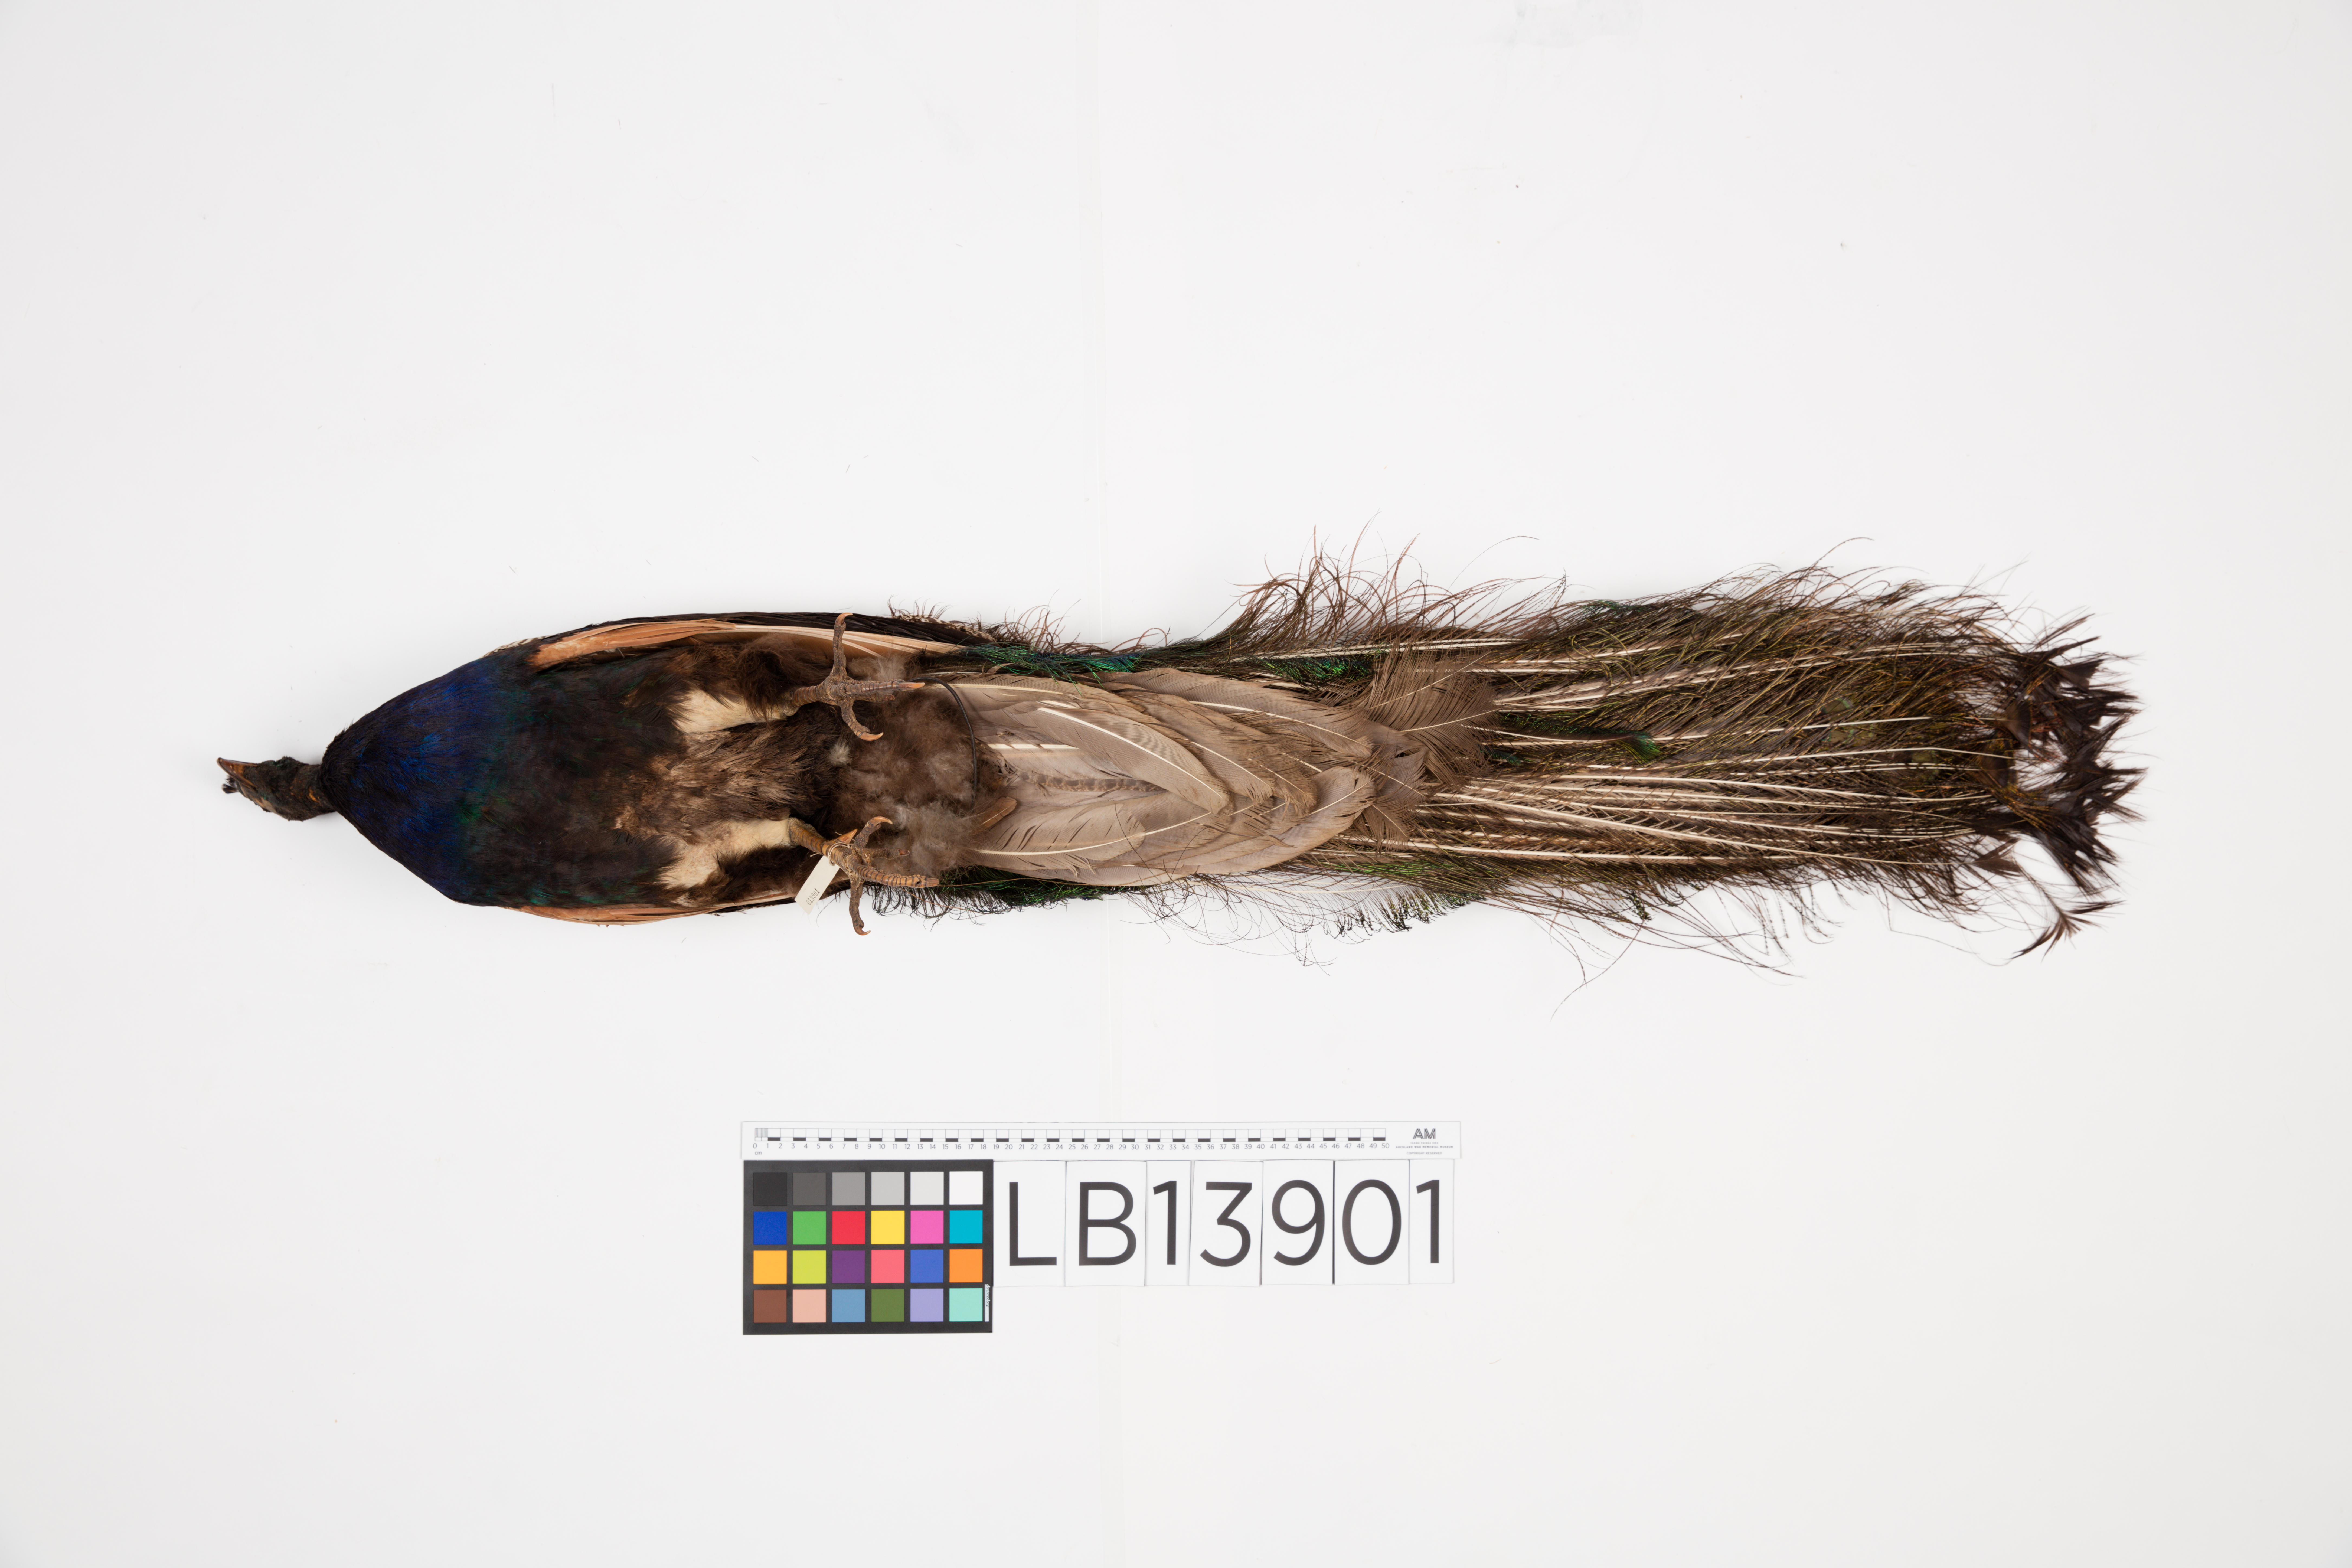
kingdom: Animalia
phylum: Chordata
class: Aves
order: Galliformes
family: Phasianidae
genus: Pavo
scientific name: Pavo cristatus
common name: Indian peafowl
